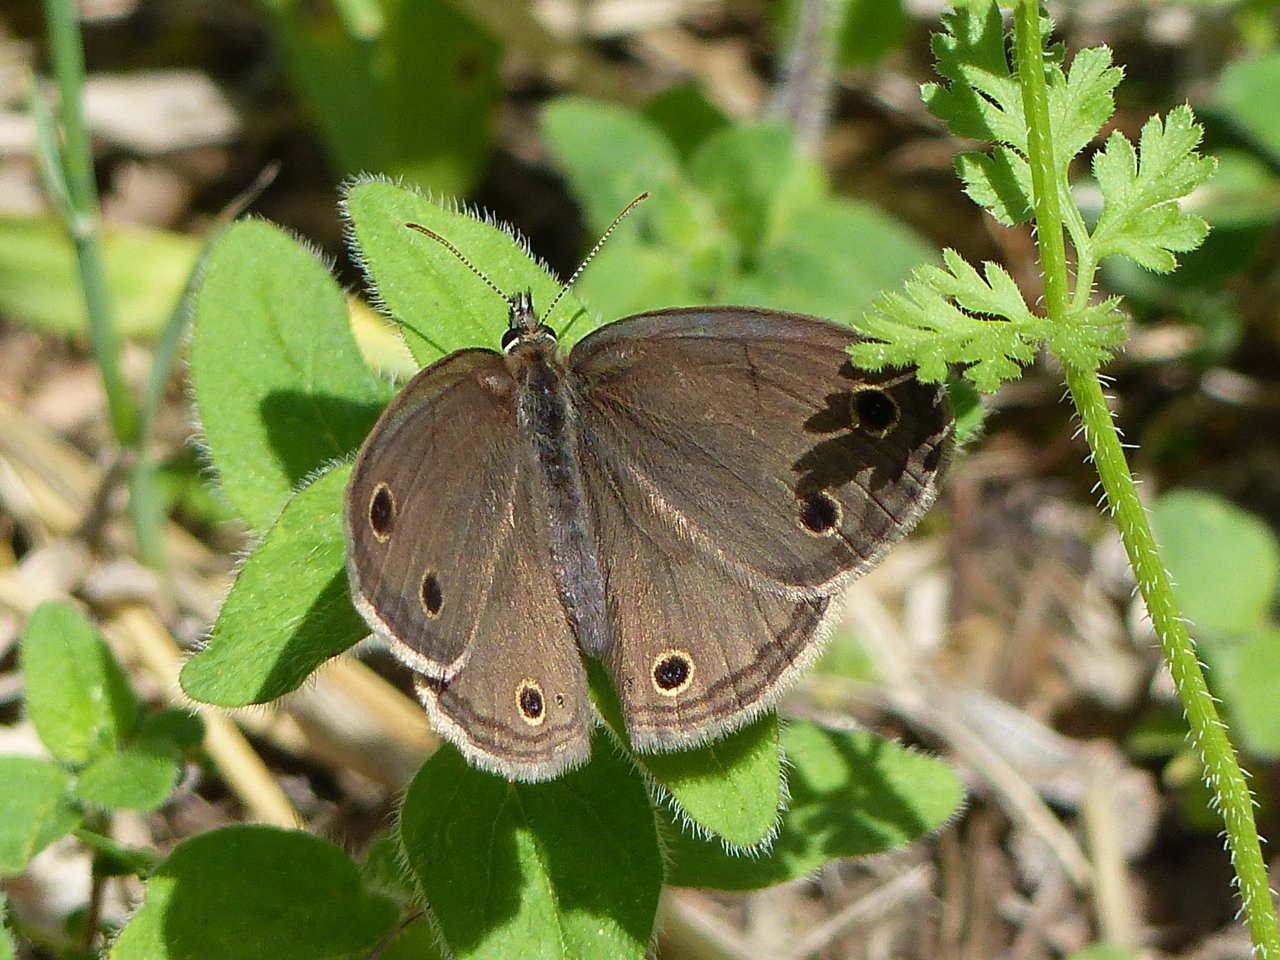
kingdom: Animalia
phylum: Arthropoda
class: Insecta
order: Lepidoptera
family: Nymphalidae
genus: Euptychia
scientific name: Euptychia cymela
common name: Little Wood Satyr
